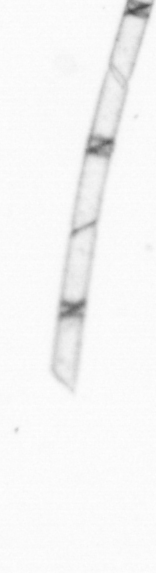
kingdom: Chromista
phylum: Ochrophyta
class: Bacillariophyceae
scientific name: Bacillariophyceae
